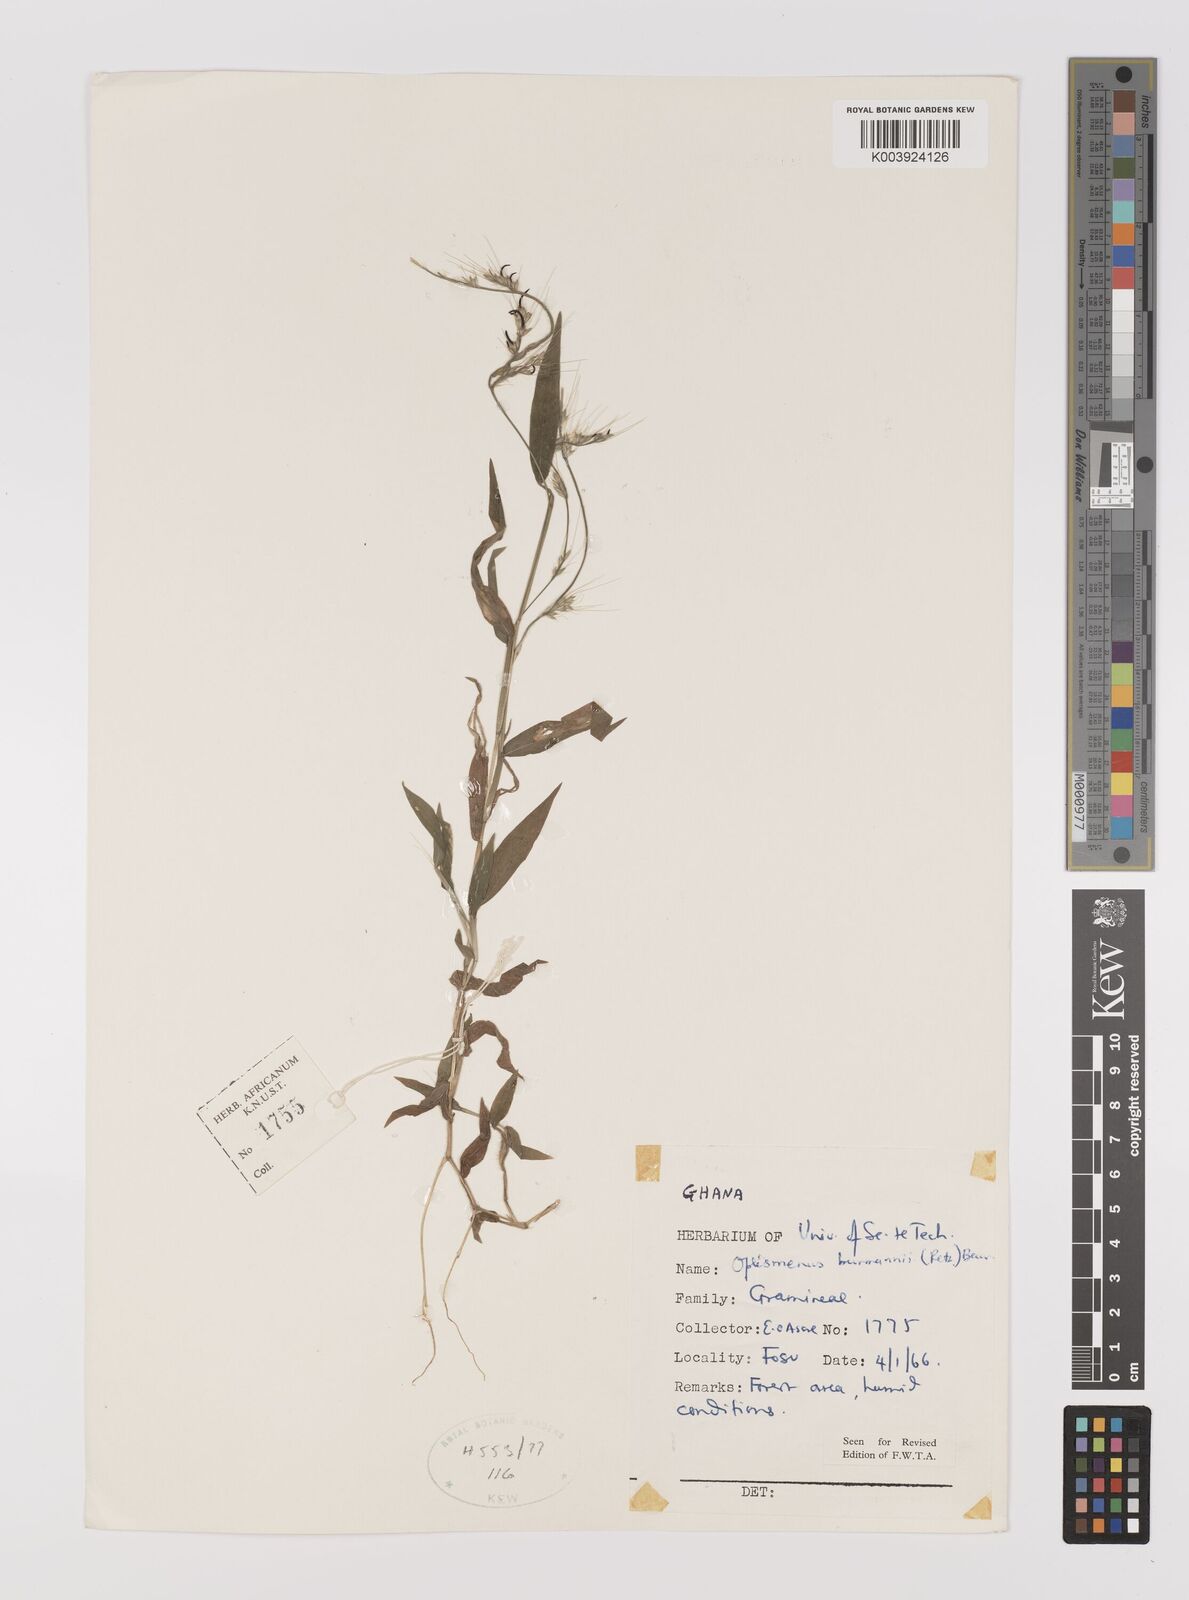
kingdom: Plantae
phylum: Tracheophyta
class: Liliopsida
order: Poales
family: Poaceae
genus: Oplismenus
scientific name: Oplismenus burmanni
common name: Burmann's basketgrass
